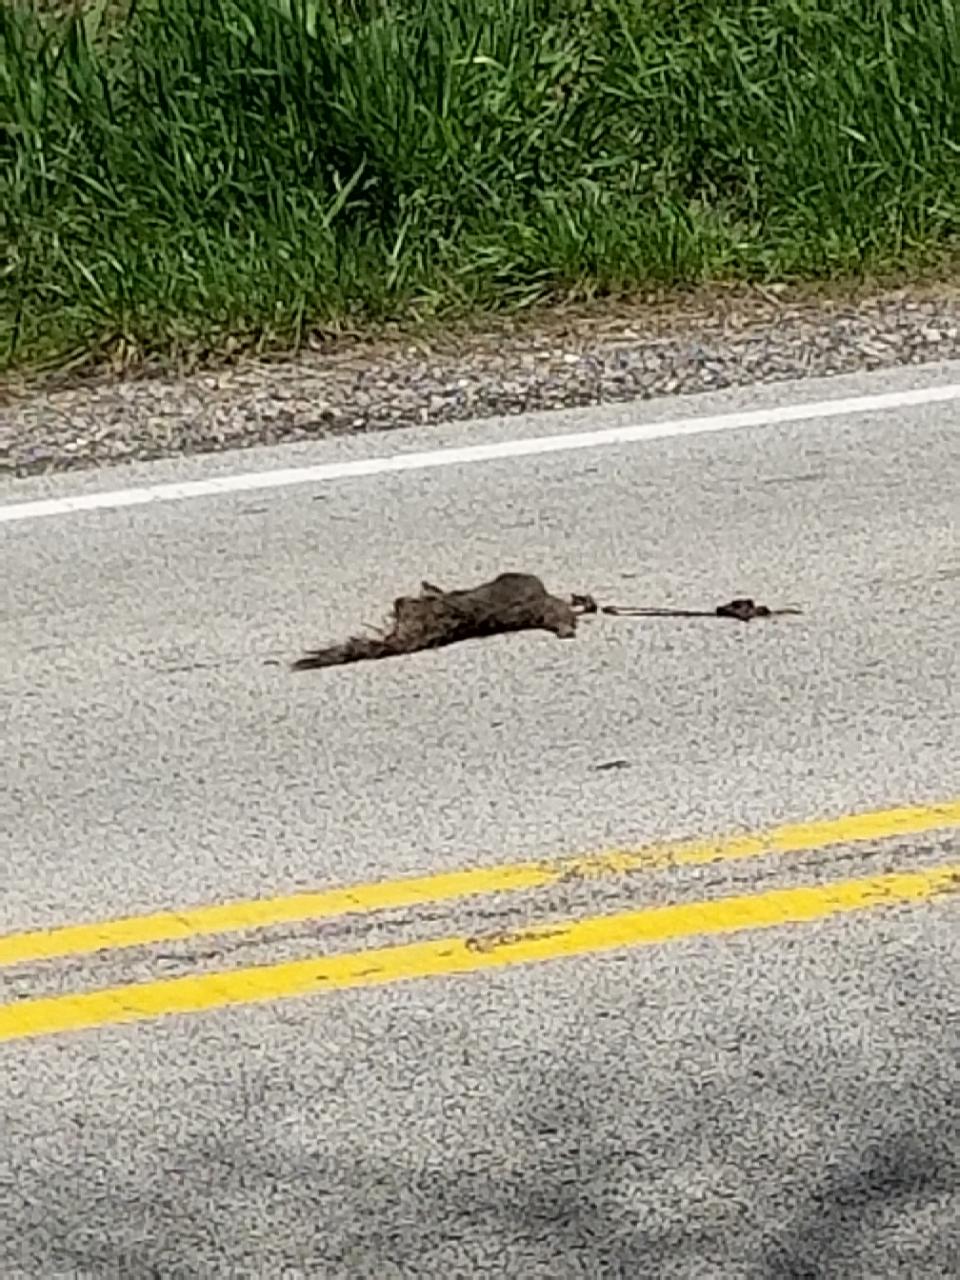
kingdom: Animalia
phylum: Chordata
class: Mammalia
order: Rodentia
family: Sciuridae
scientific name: Sciuridae
